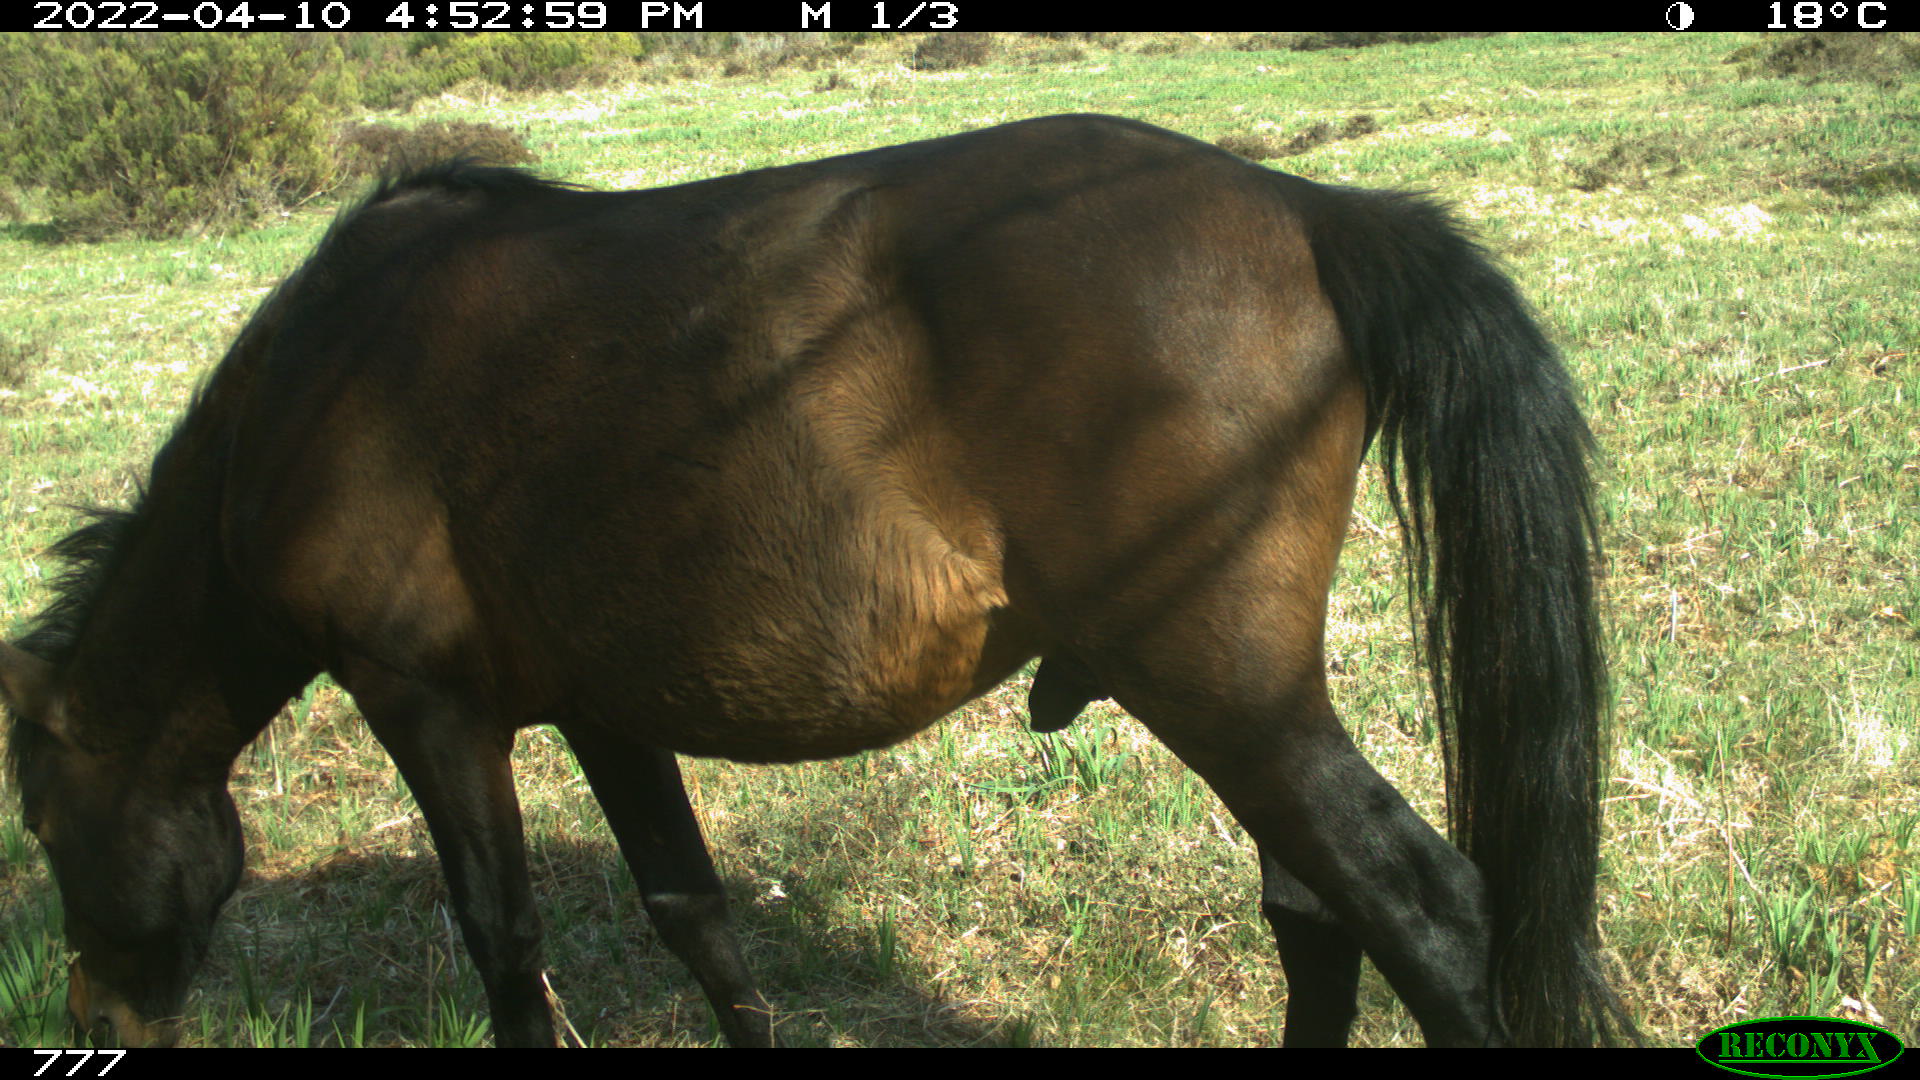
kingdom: Animalia
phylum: Chordata
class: Mammalia
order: Perissodactyla
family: Equidae
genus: Equus
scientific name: Equus caballus
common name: Horse
